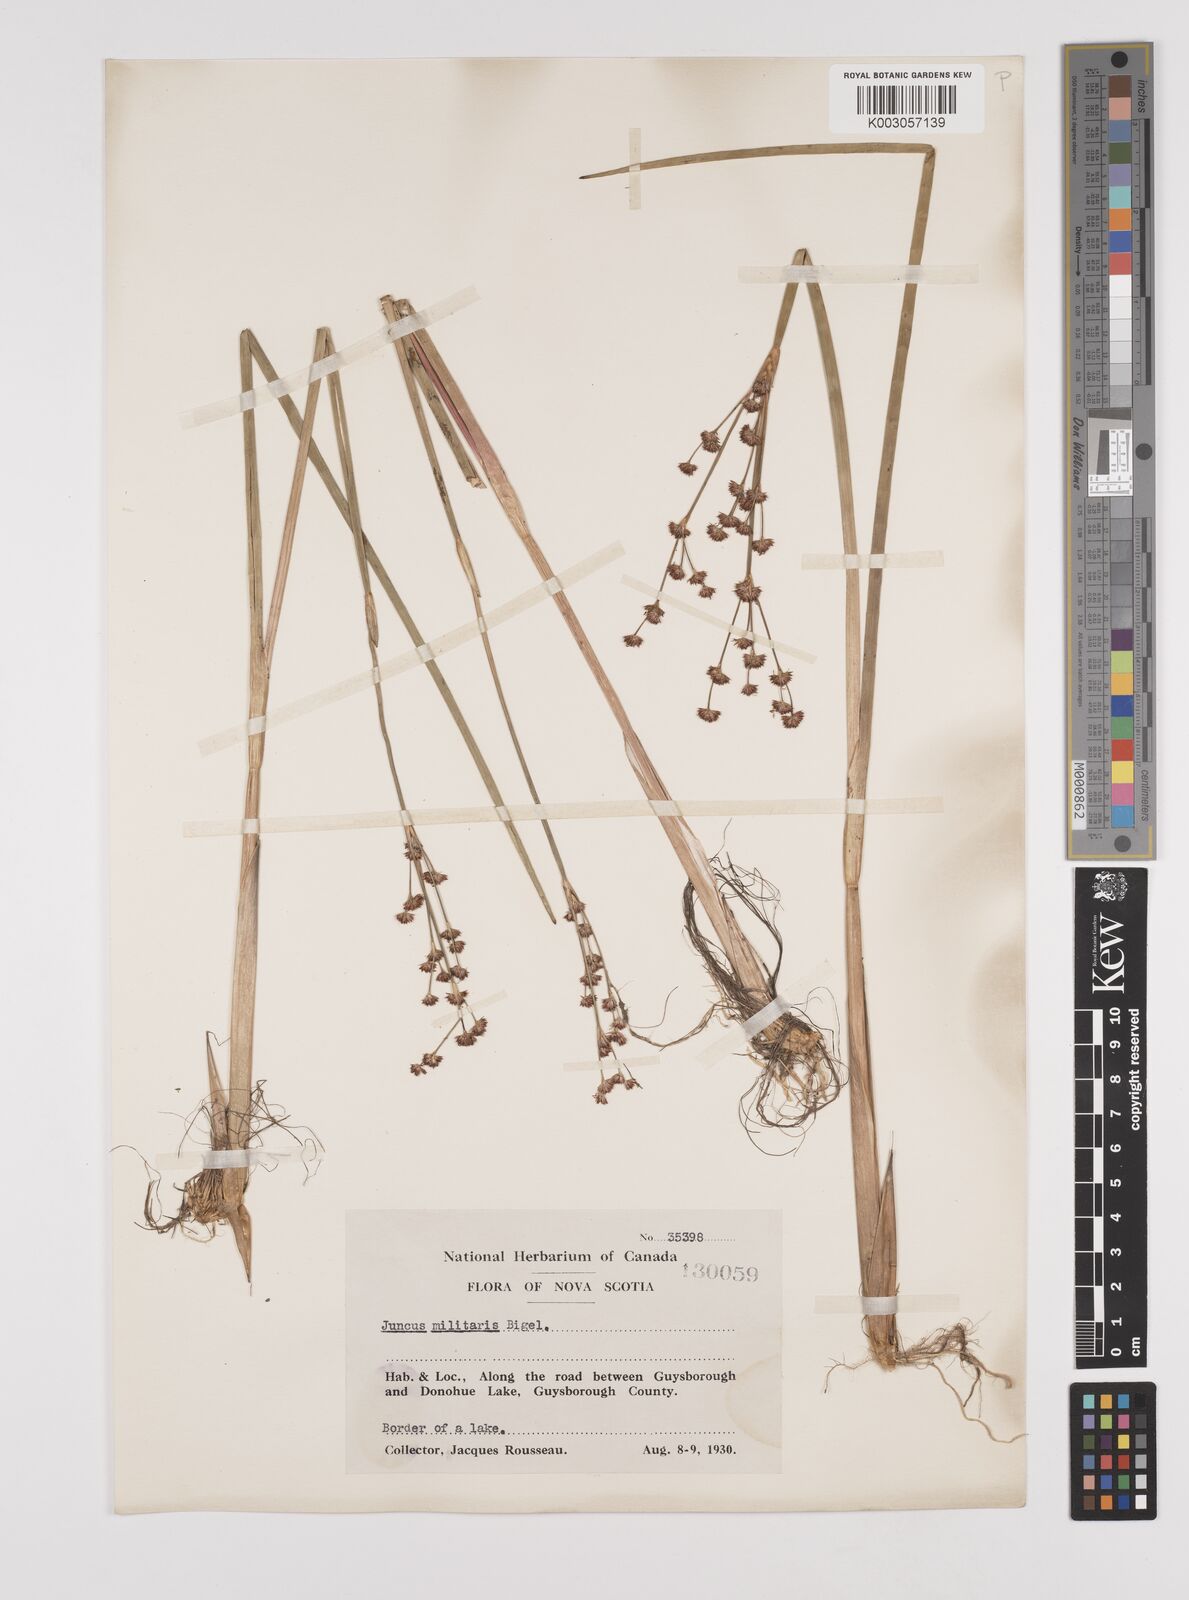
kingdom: Plantae
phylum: Tracheophyta
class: Liliopsida
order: Poales
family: Juncaceae
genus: Juncus
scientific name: Juncus militaris
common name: Bayonet rush
